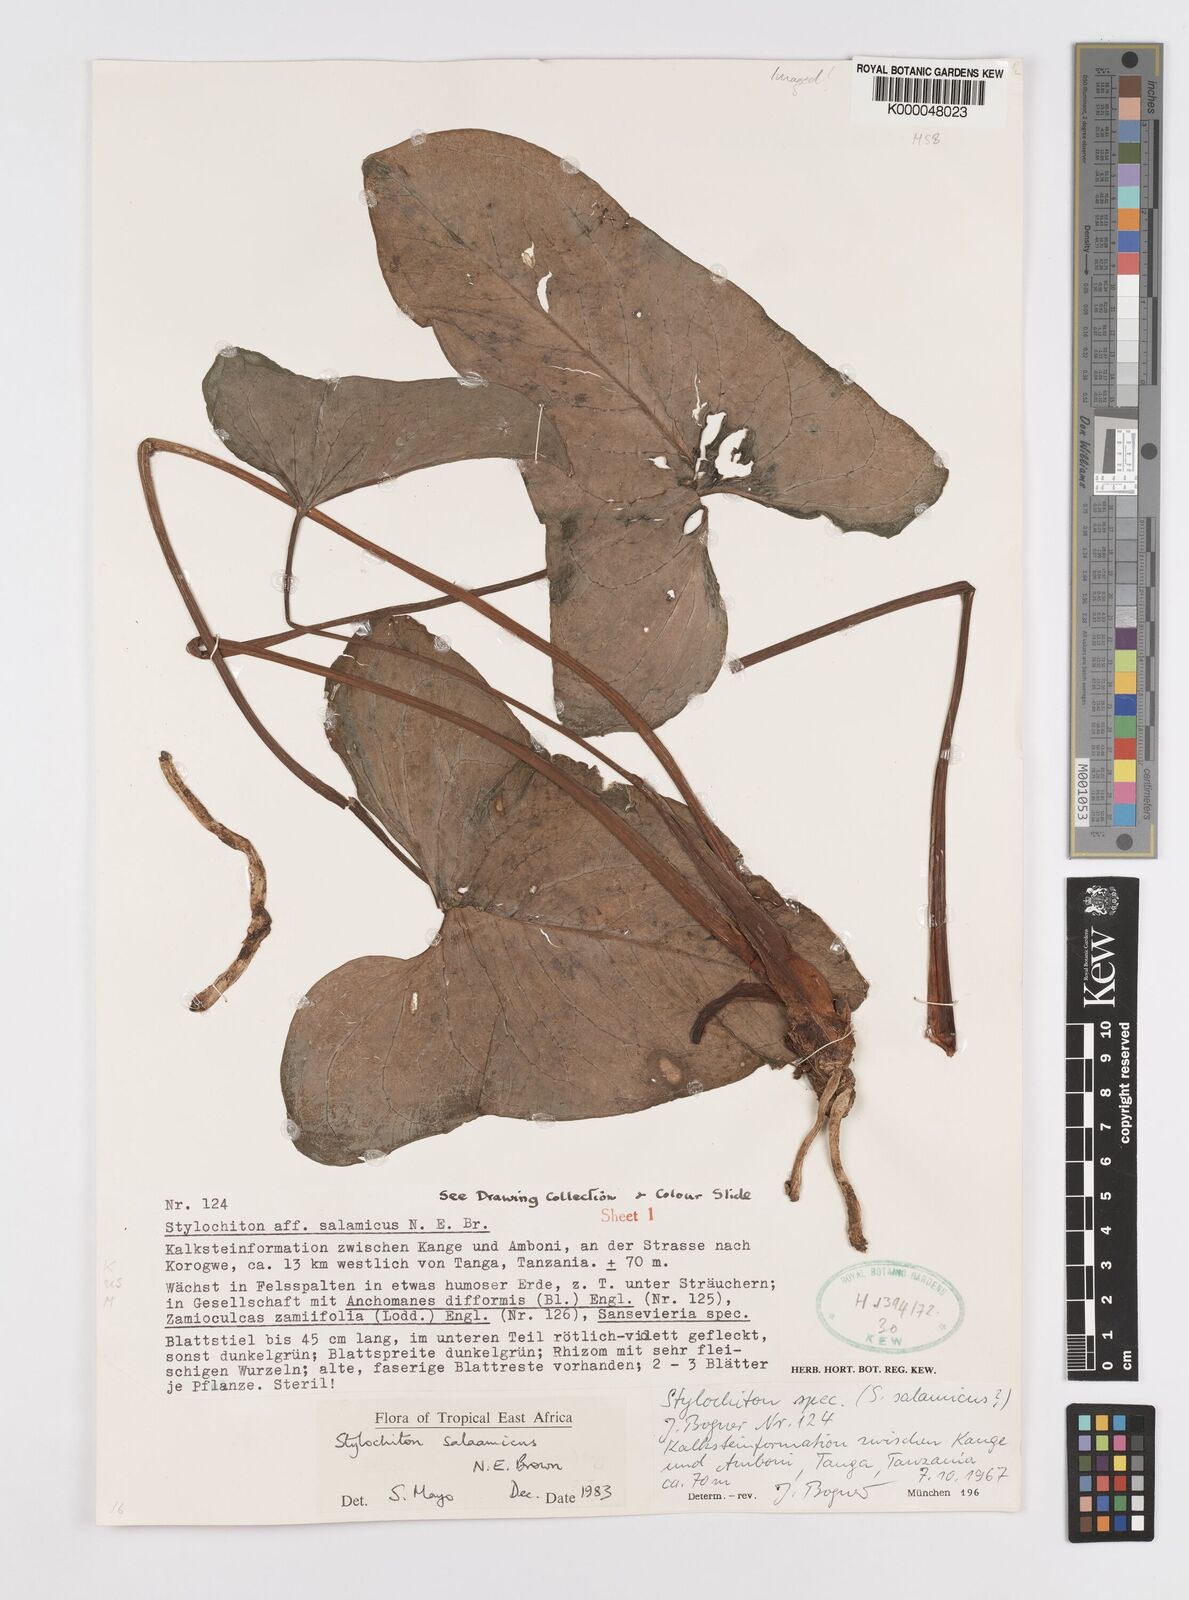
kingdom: Plantae
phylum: Tracheophyta
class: Liliopsida
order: Alismatales
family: Araceae
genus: Stylochaeton
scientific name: Stylochaeton salaamicum
